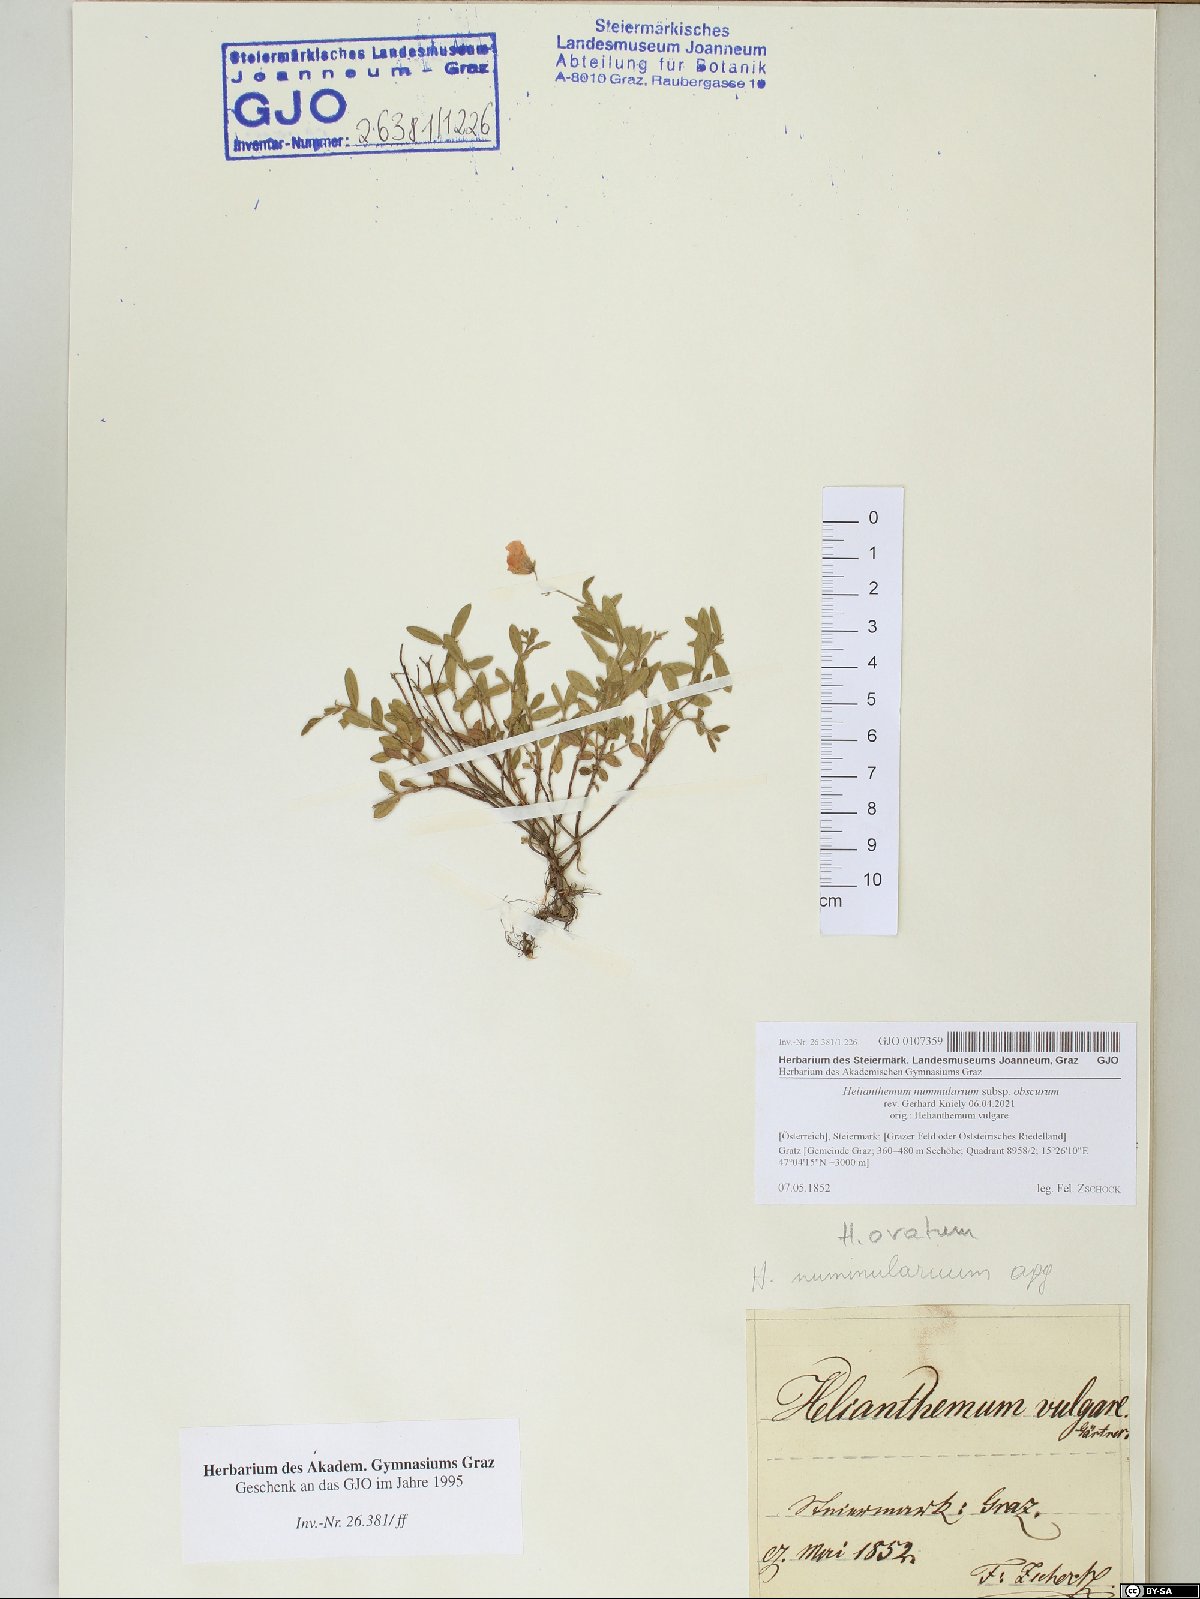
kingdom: Plantae
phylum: Tracheophyta
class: Magnoliopsida
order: Malvales
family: Cistaceae
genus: Helianthemum
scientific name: Helianthemum nummularium
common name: Common rock-rose
